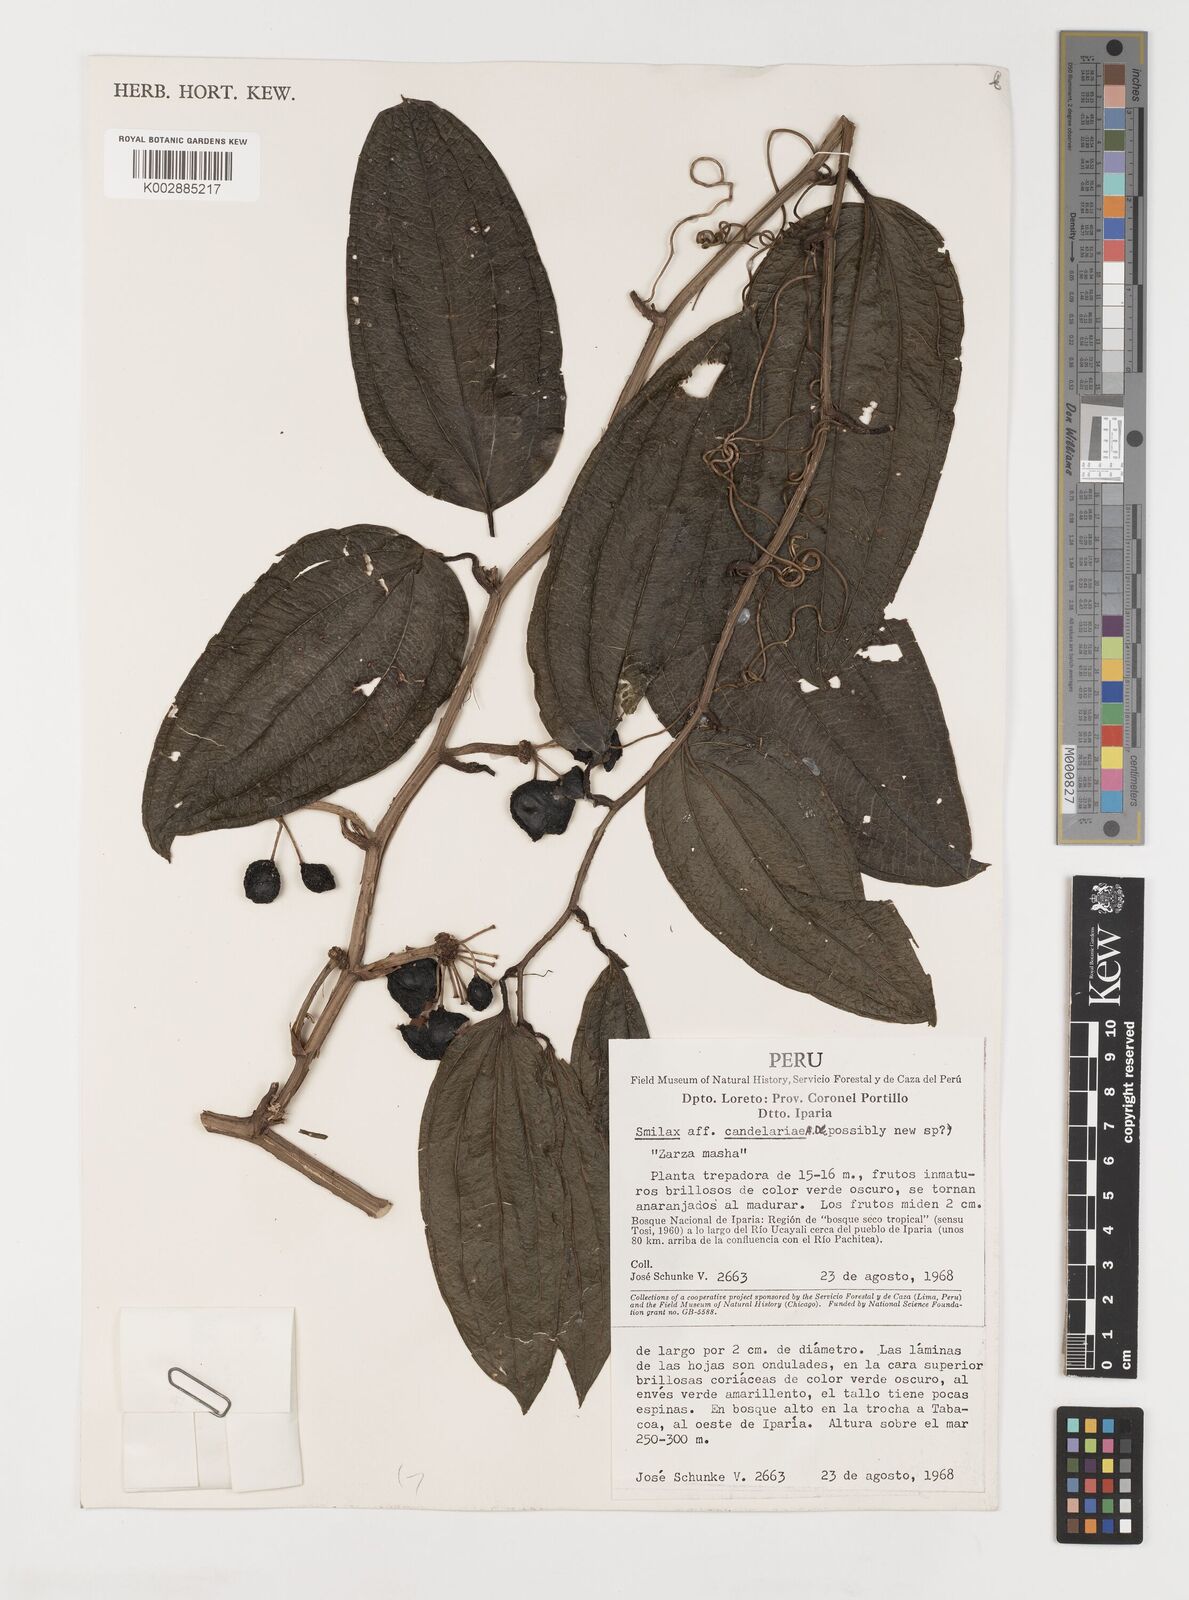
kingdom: Plantae
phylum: Tracheophyta
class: Liliopsida
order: Liliales
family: Smilacaceae
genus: Smilax
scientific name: Smilax mollis
